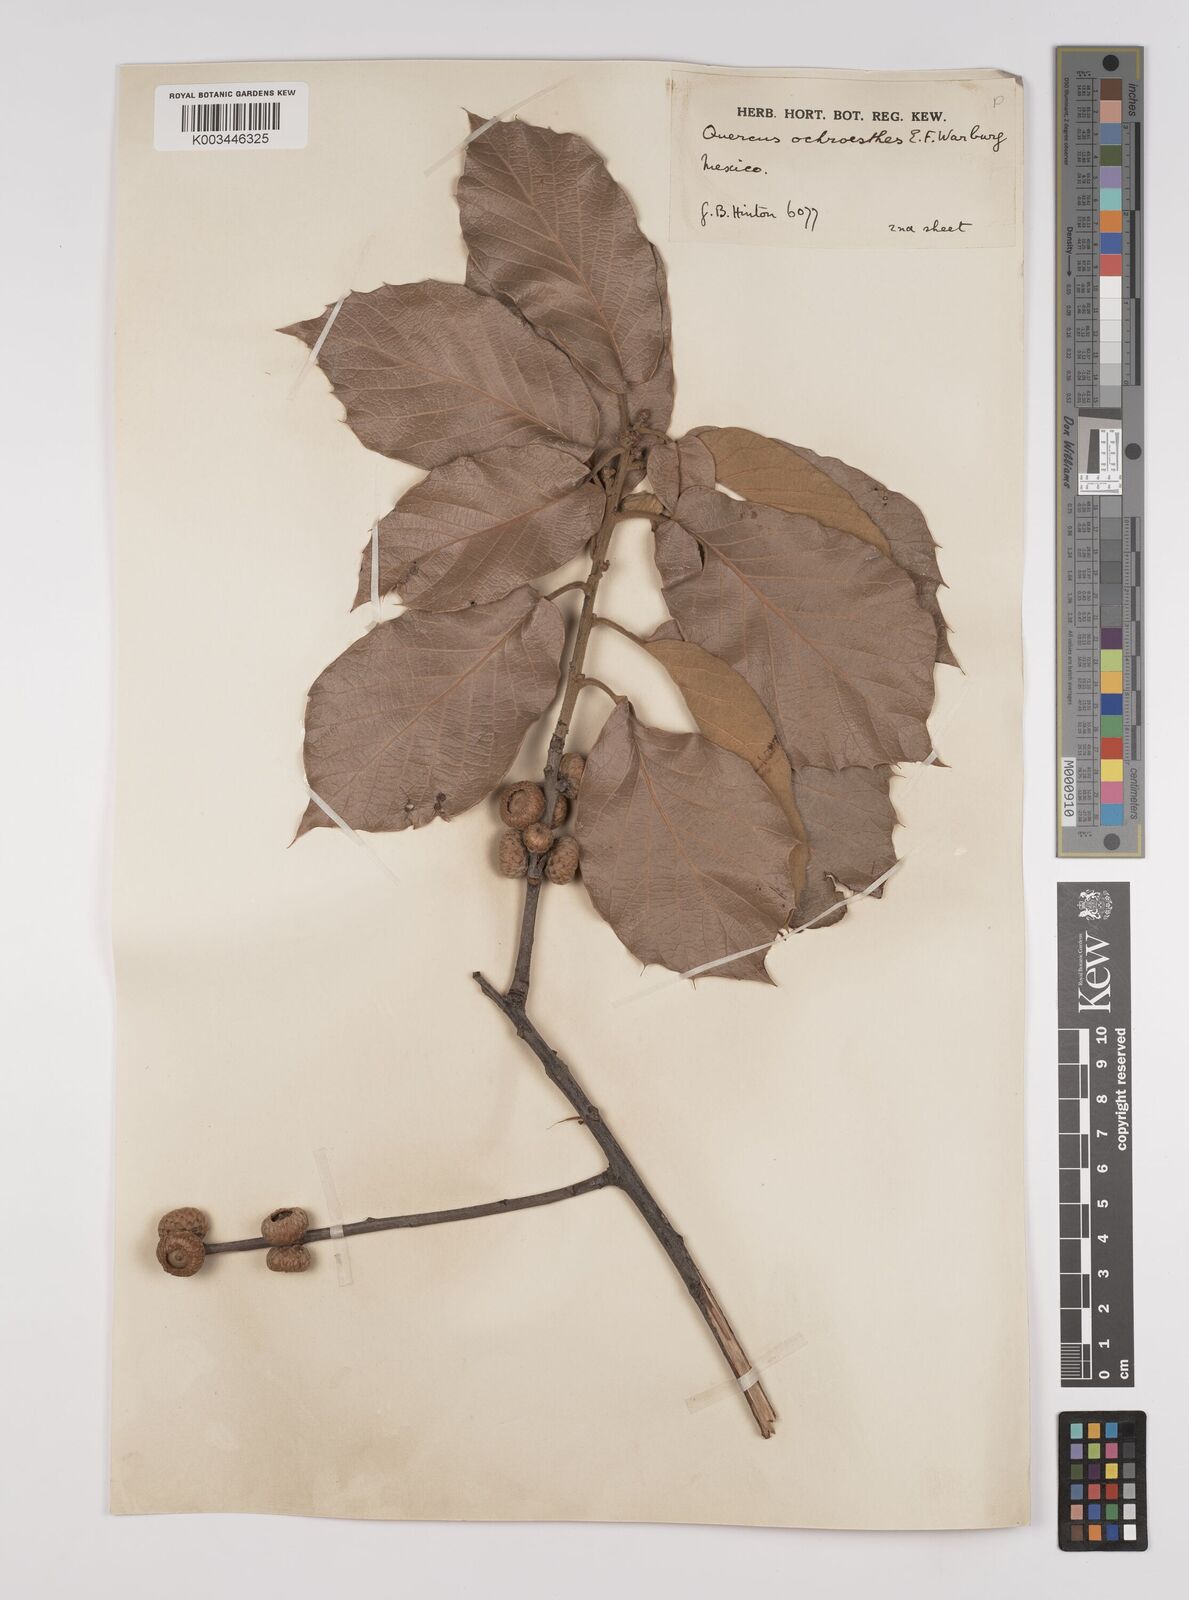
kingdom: Plantae
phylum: Tracheophyta
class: Magnoliopsida
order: Fagales
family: Fagaceae
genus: Quercus
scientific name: Quercus hintonii
